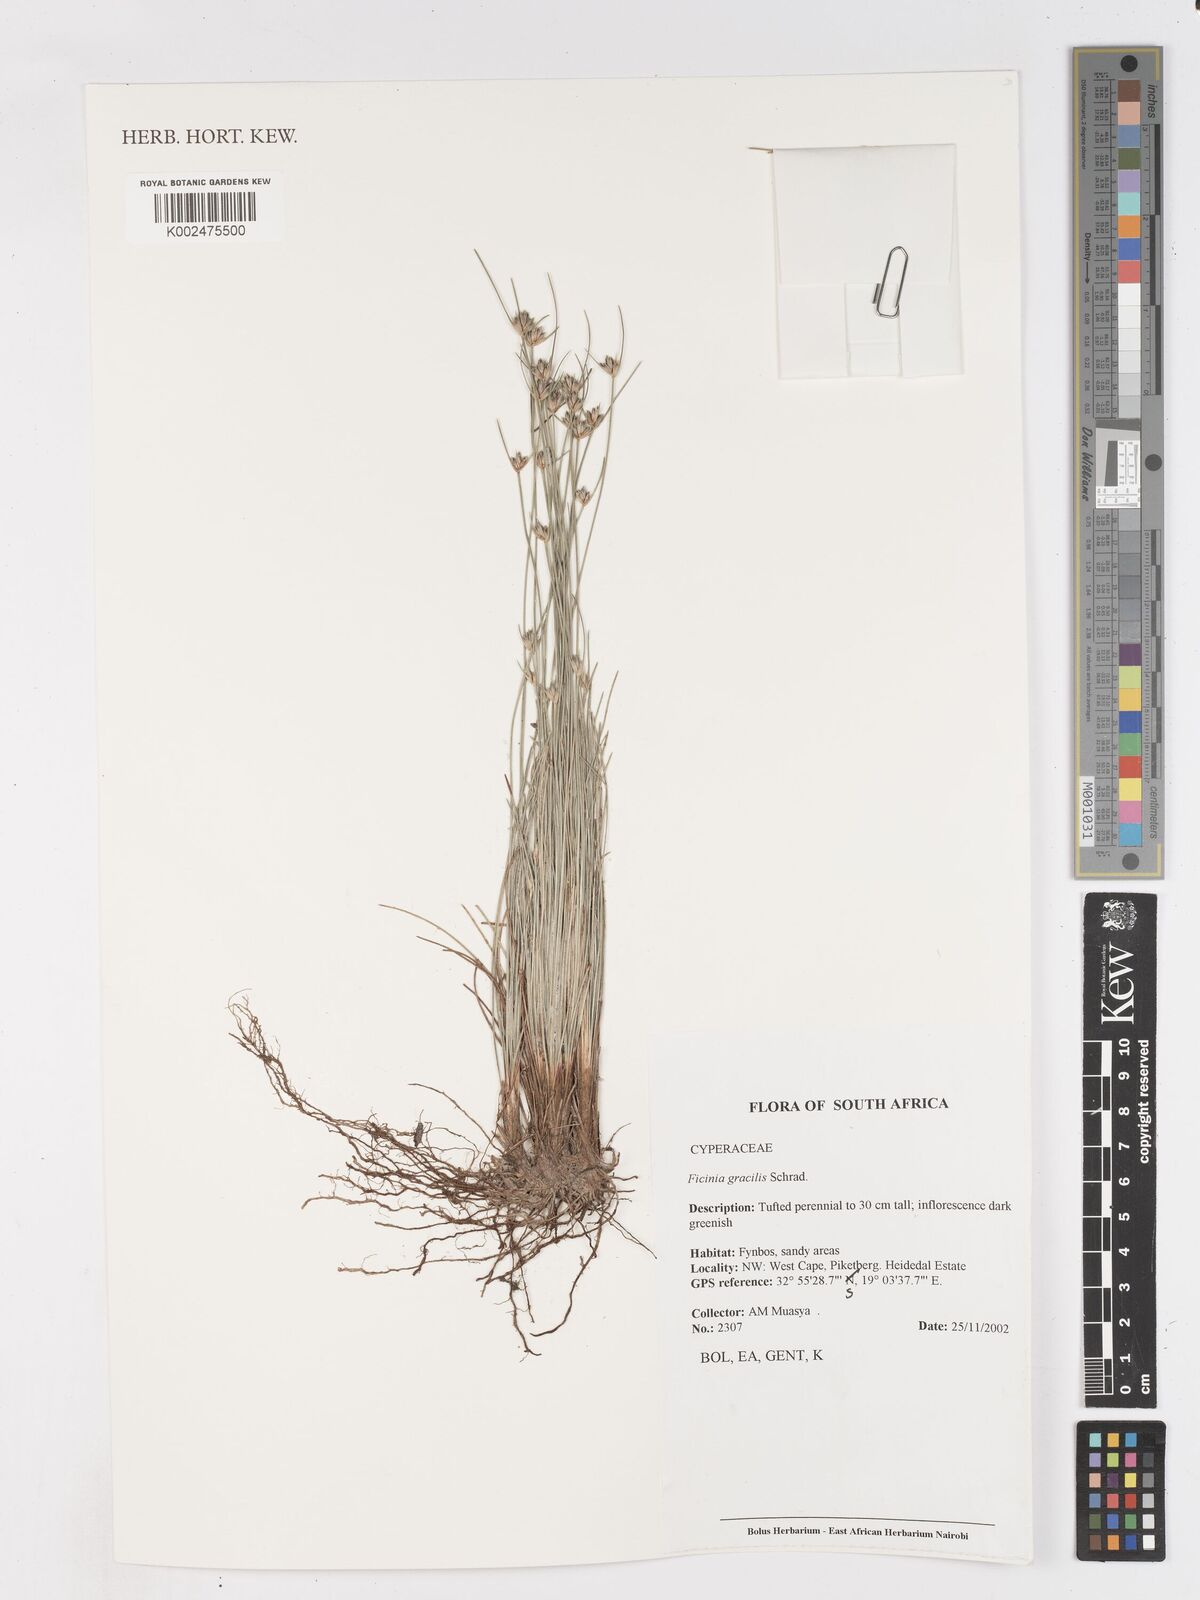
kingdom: Plantae
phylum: Tracheophyta
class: Liliopsida
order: Poales
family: Cyperaceae
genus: Ficinia
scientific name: Ficinia gracilis
